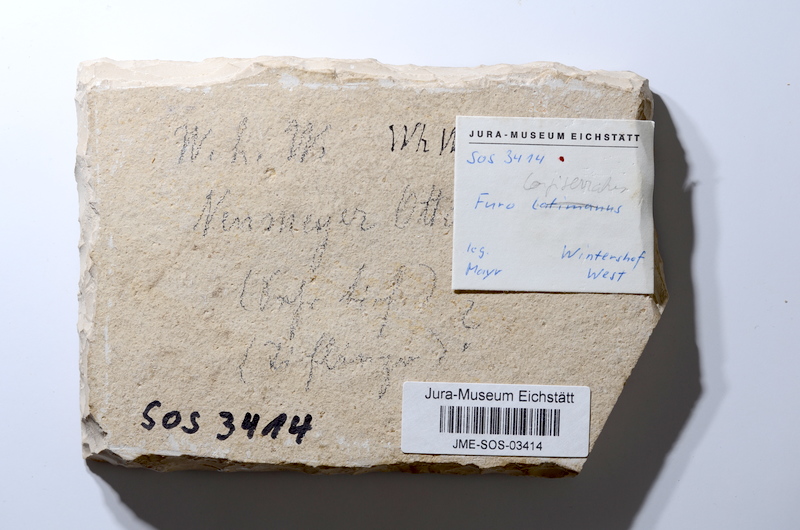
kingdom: Animalia
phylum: Chordata
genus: Zandtfuro
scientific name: Zandtfuro tischlingeri
